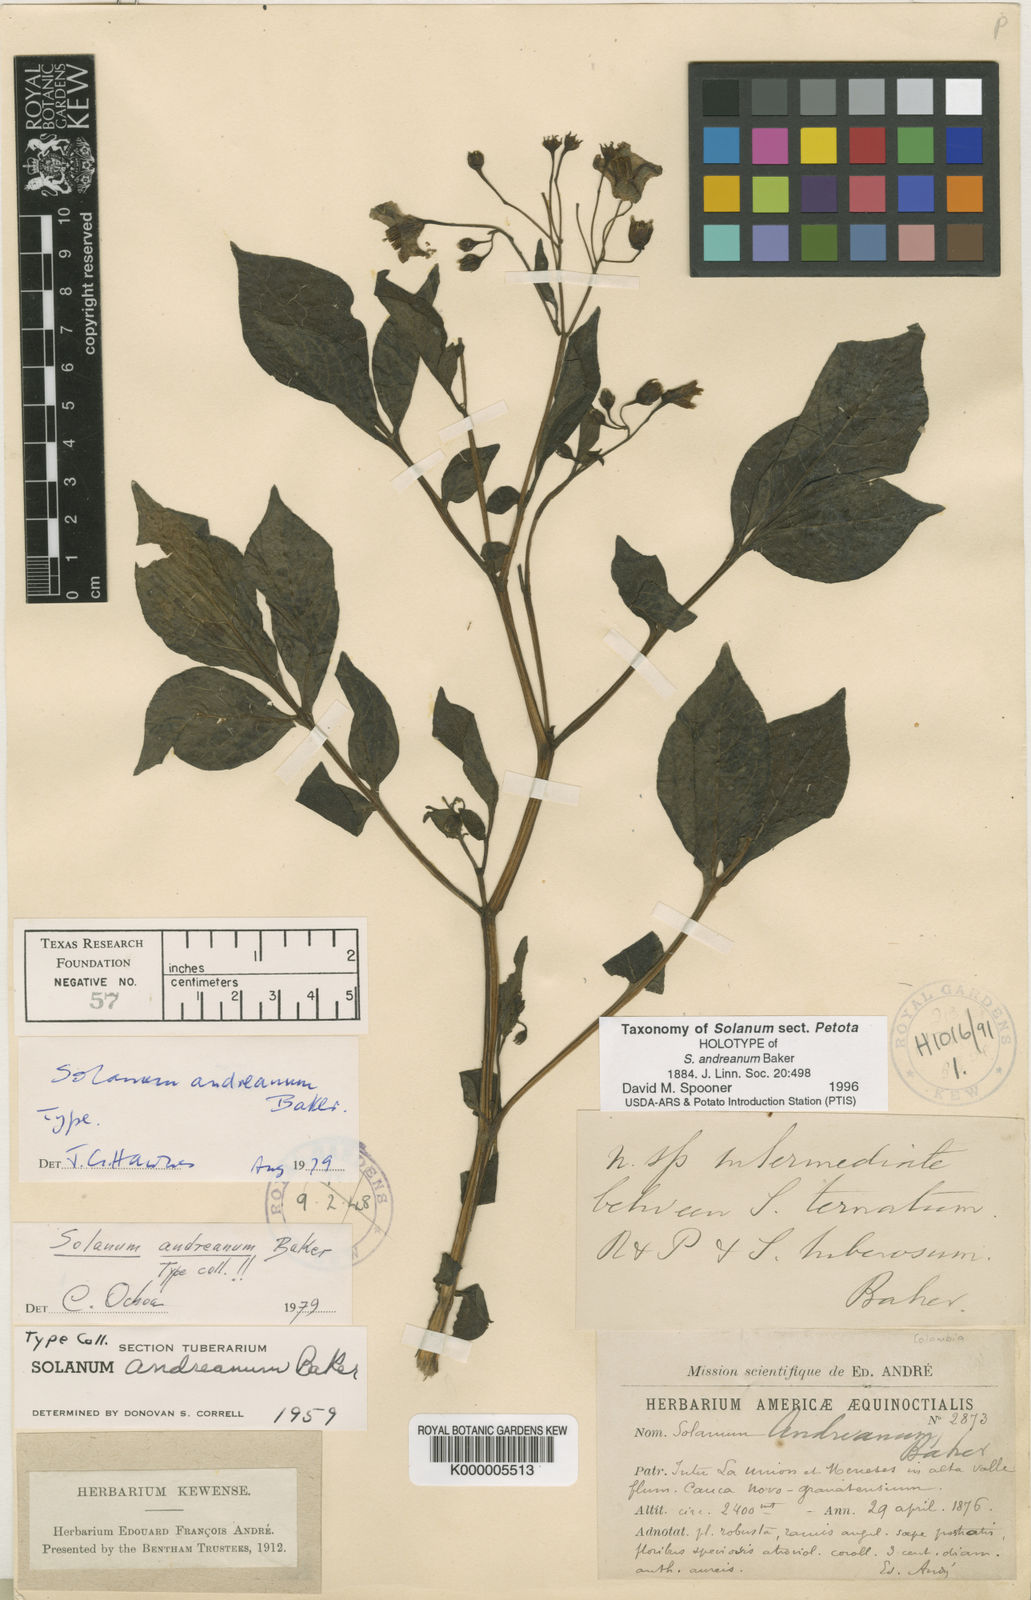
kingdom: Plantae
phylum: Tracheophyta
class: Magnoliopsida
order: Solanales
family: Solanaceae
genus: Solanum
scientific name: Solanum andreanum
